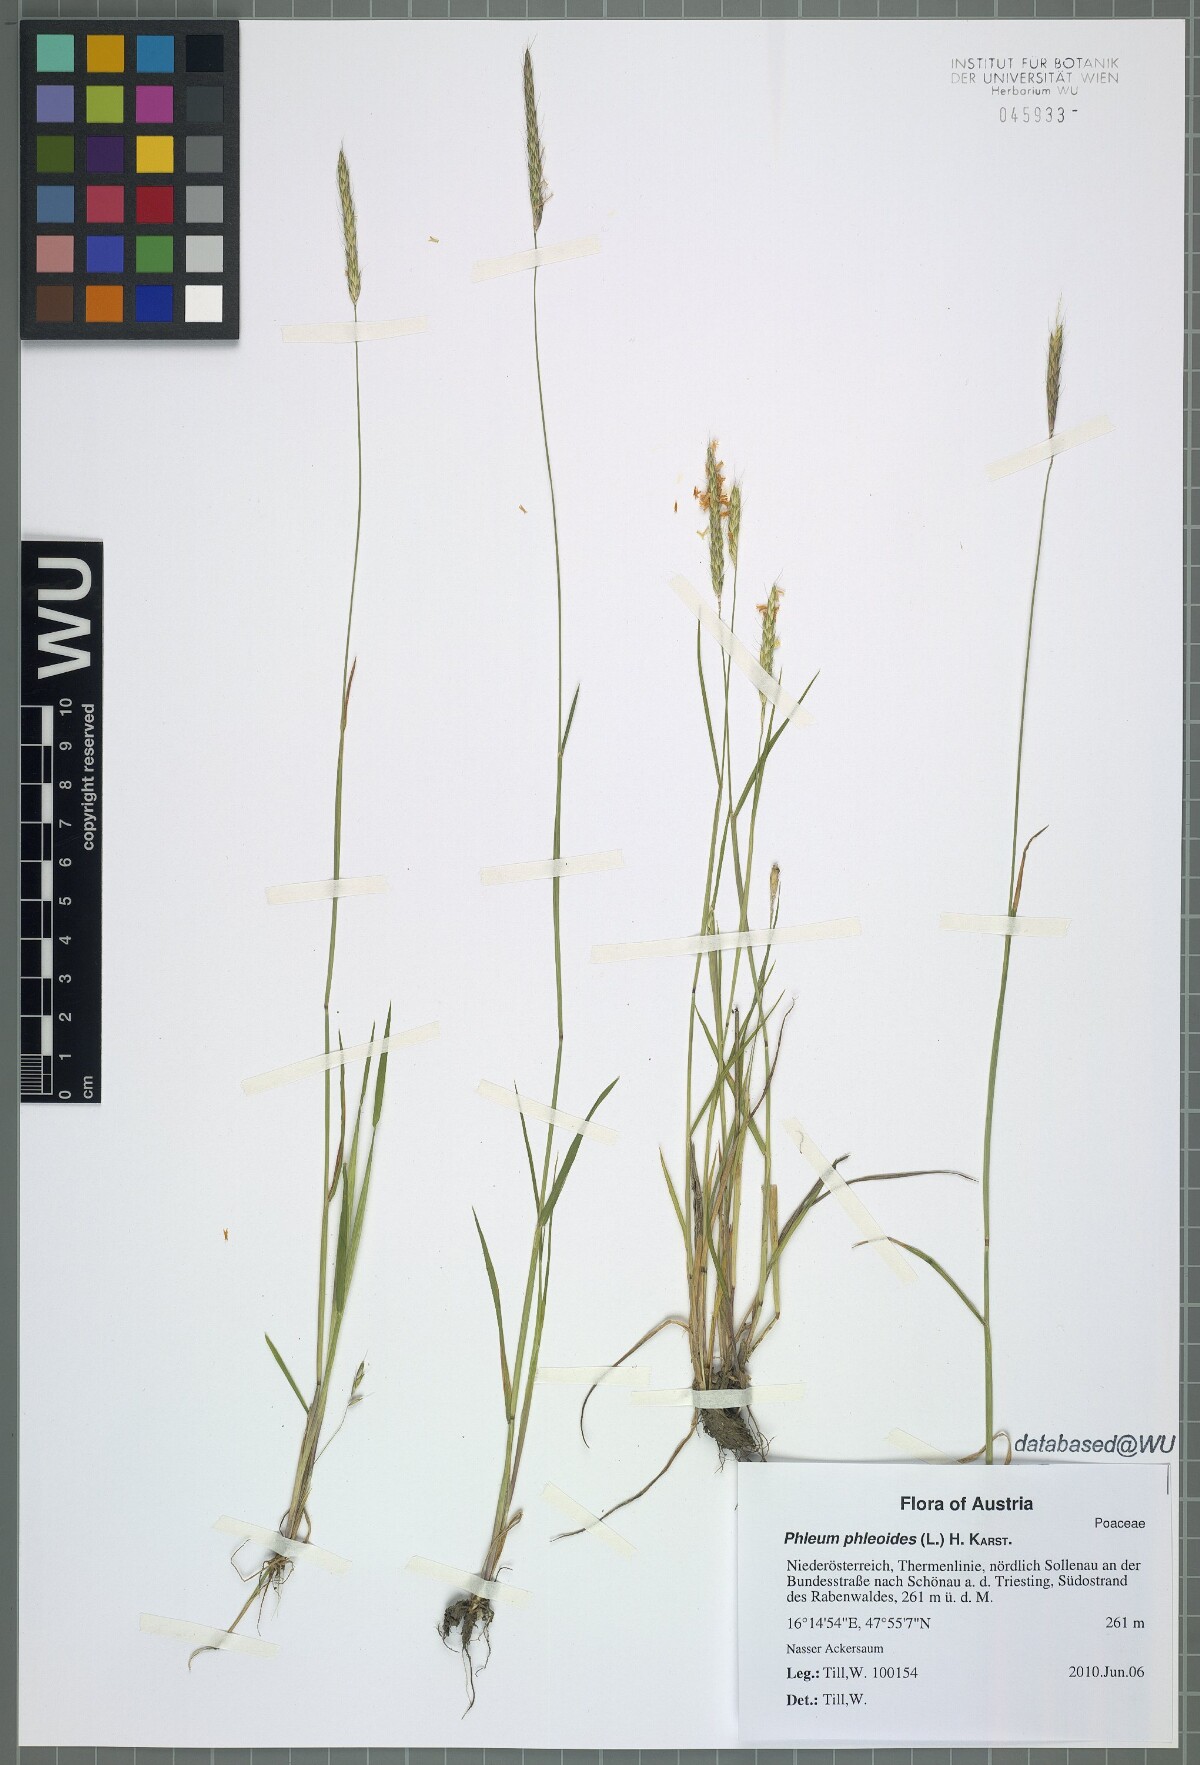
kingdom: Plantae
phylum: Tracheophyta
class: Liliopsida
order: Poales
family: Poaceae
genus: Alopecurus
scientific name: Alopecurus myosuroides
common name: Black-grass
